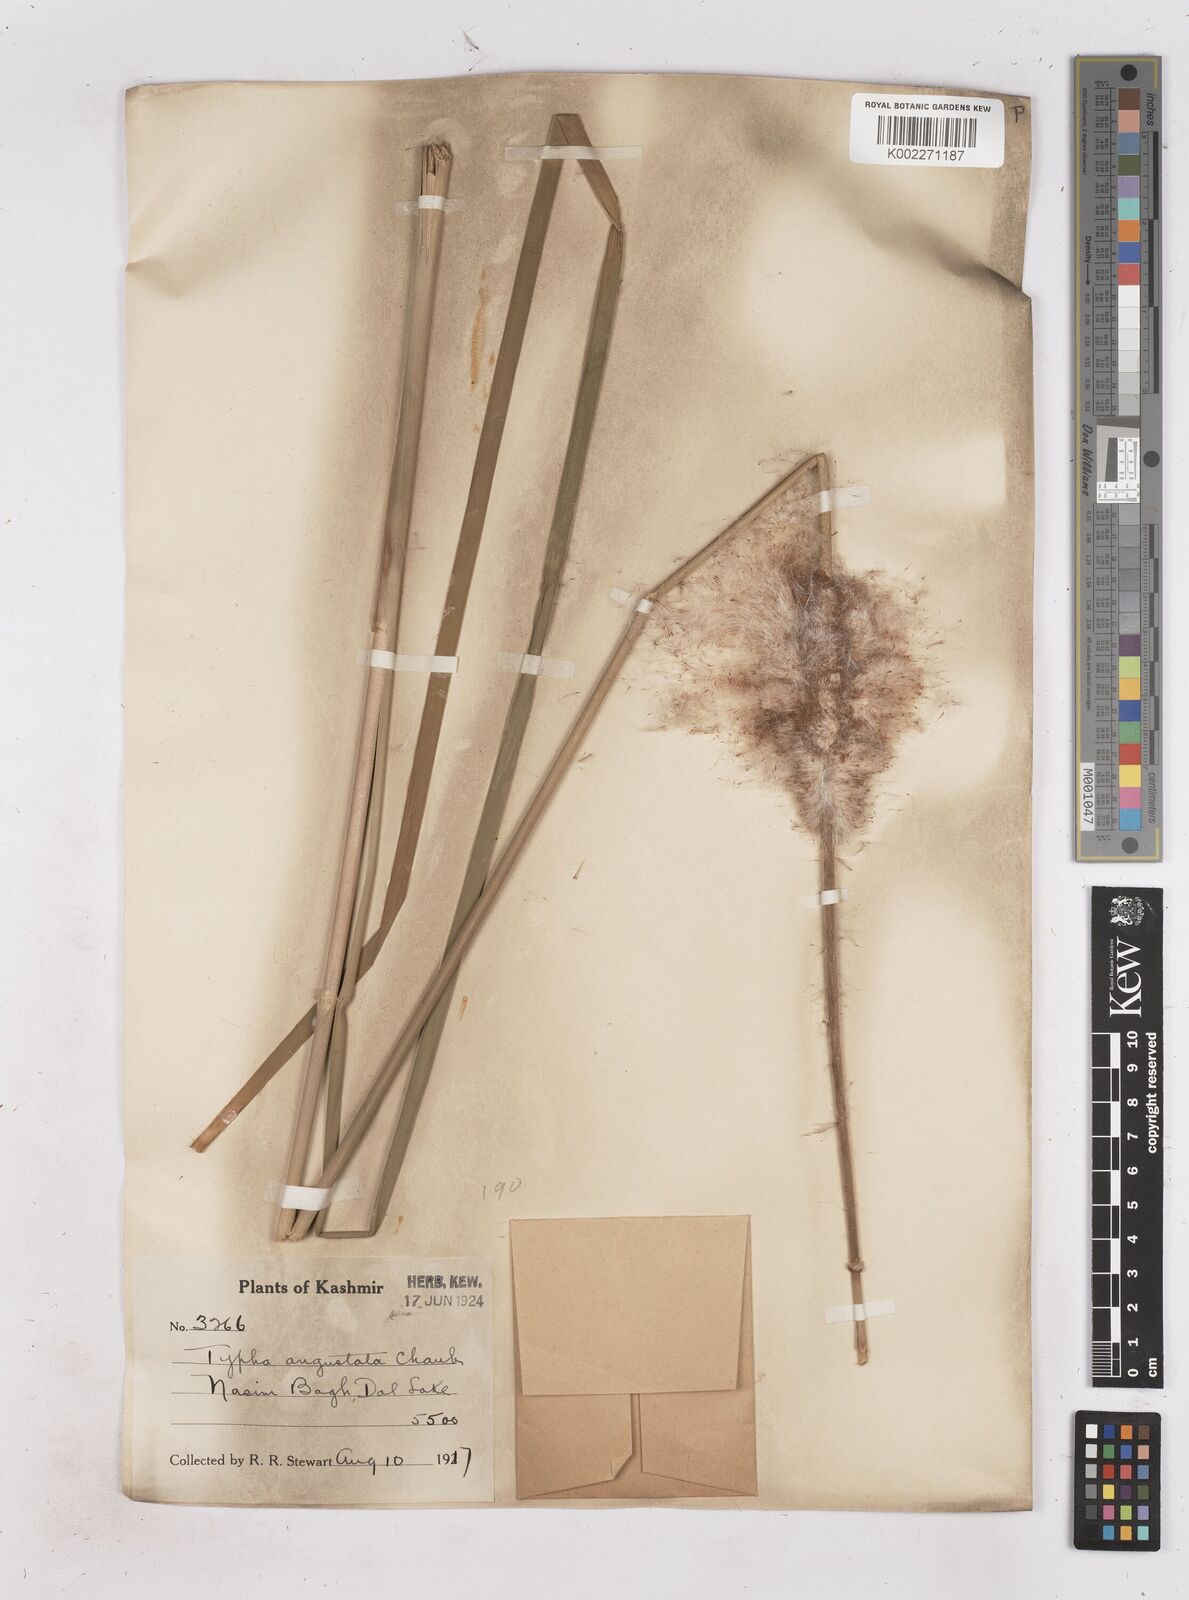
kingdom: Plantae
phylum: Tracheophyta
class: Liliopsida
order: Poales
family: Typhaceae
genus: Typha
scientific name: Typha domingensis
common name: Southern cattail
